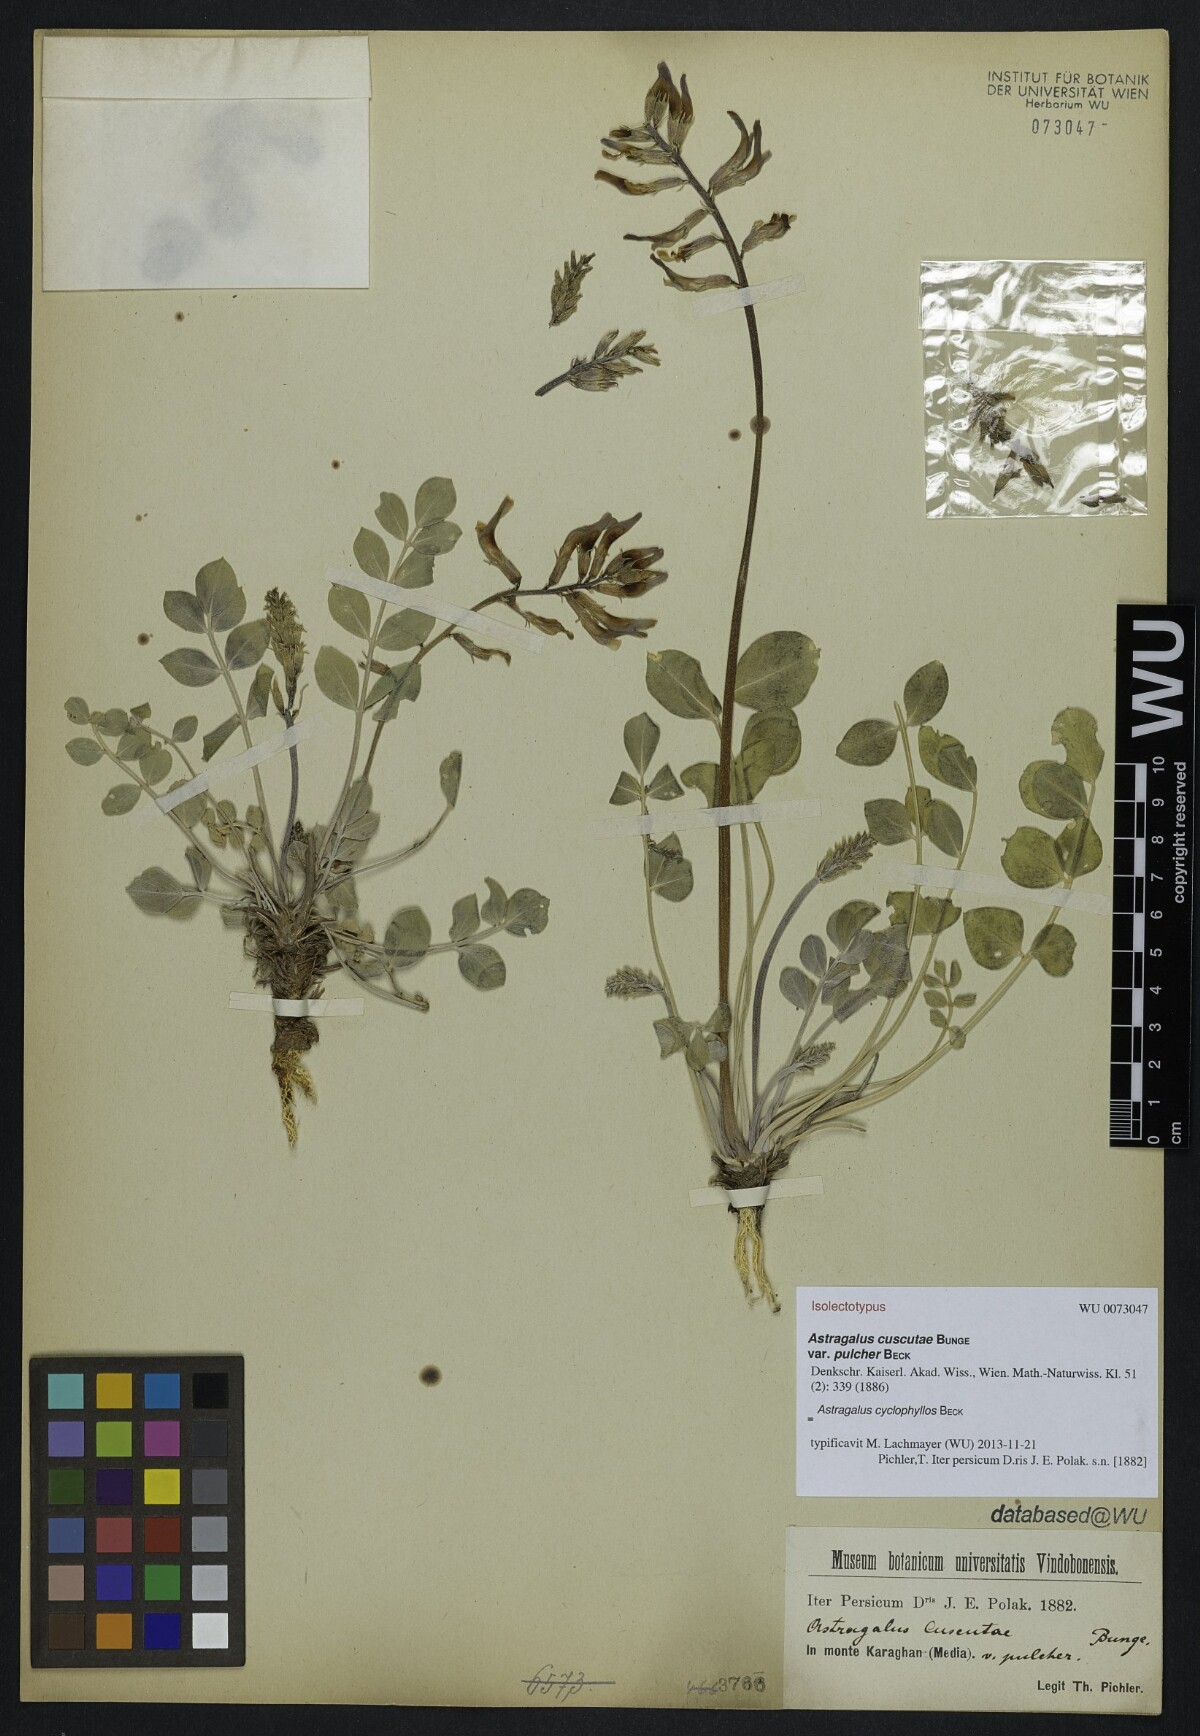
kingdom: Plantae
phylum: Tracheophyta
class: Magnoliopsida
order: Fabales
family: Fabaceae
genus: Astragalus
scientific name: Astragalus cyclophyllos
